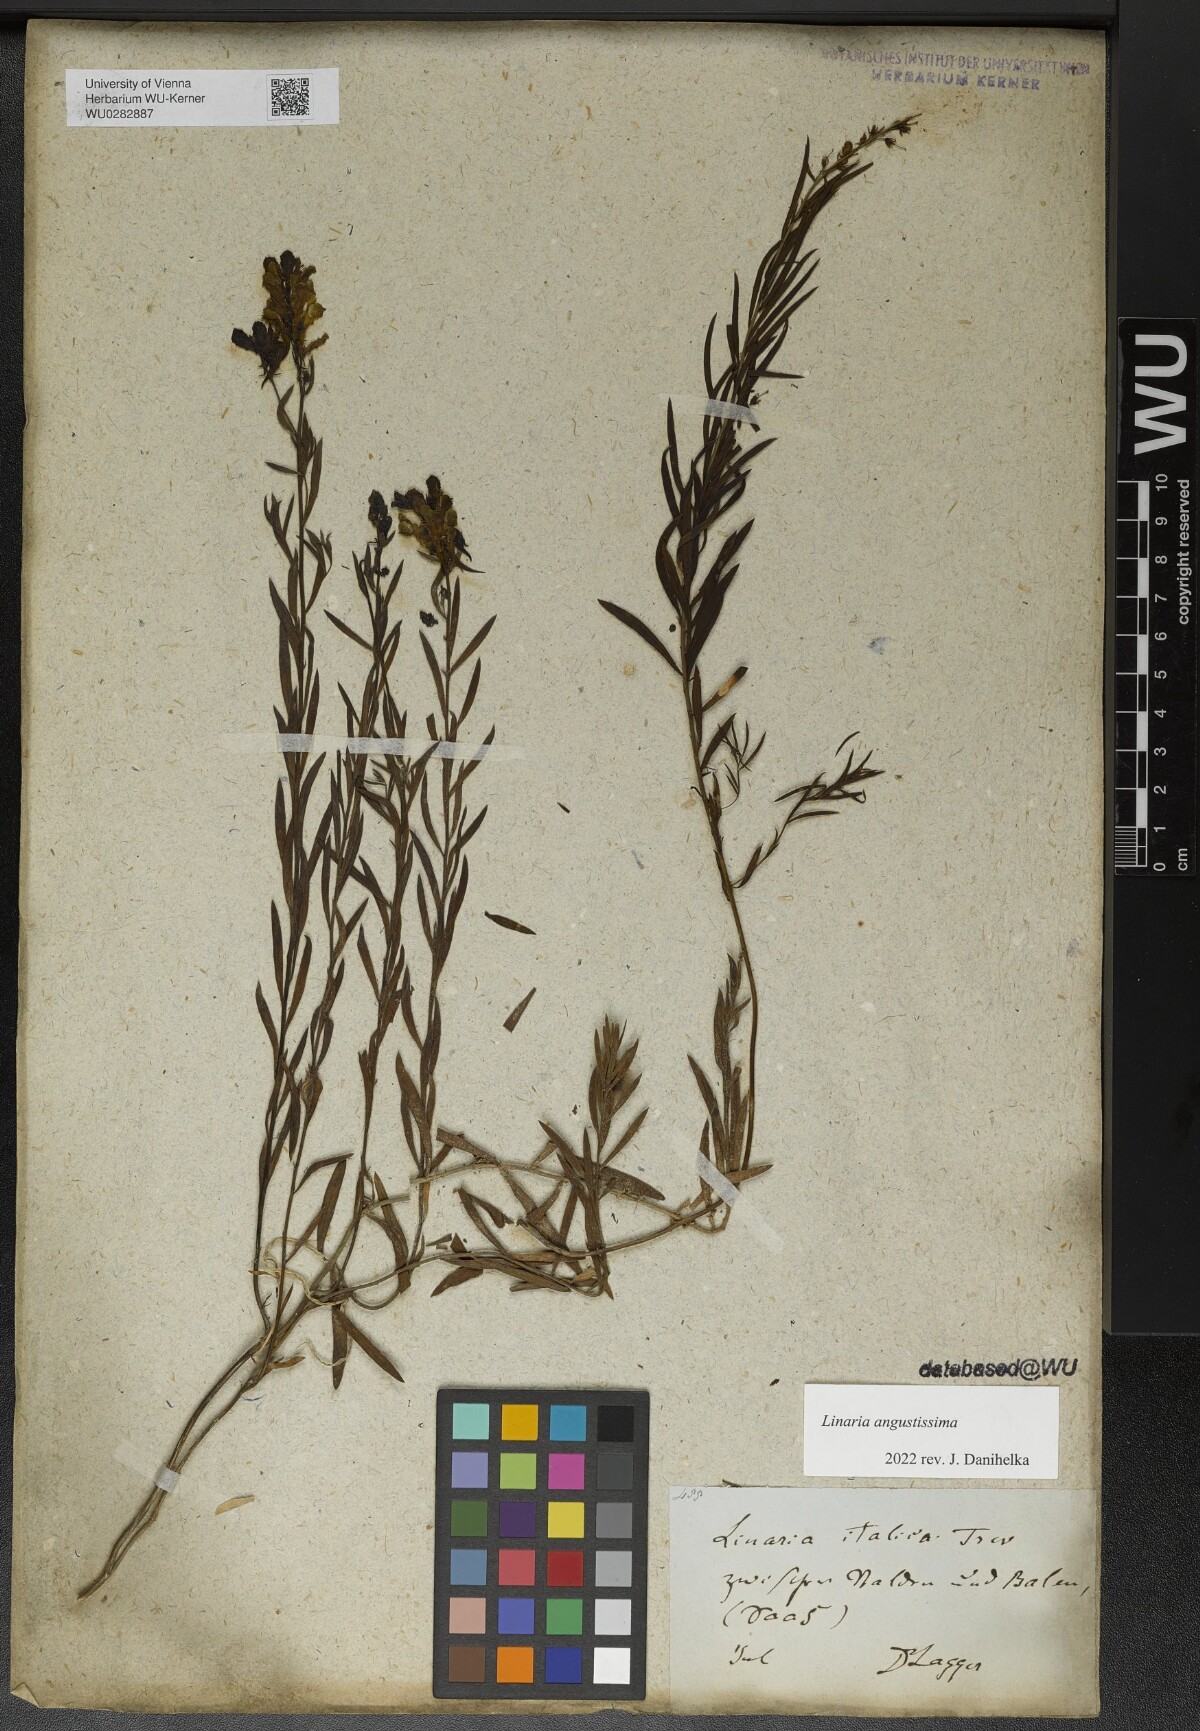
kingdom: Plantae
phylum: Tracheophyta
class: Magnoliopsida
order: Lamiales
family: Plantaginaceae
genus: Linaria
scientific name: Linaria angustissima
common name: Italian toadflax
